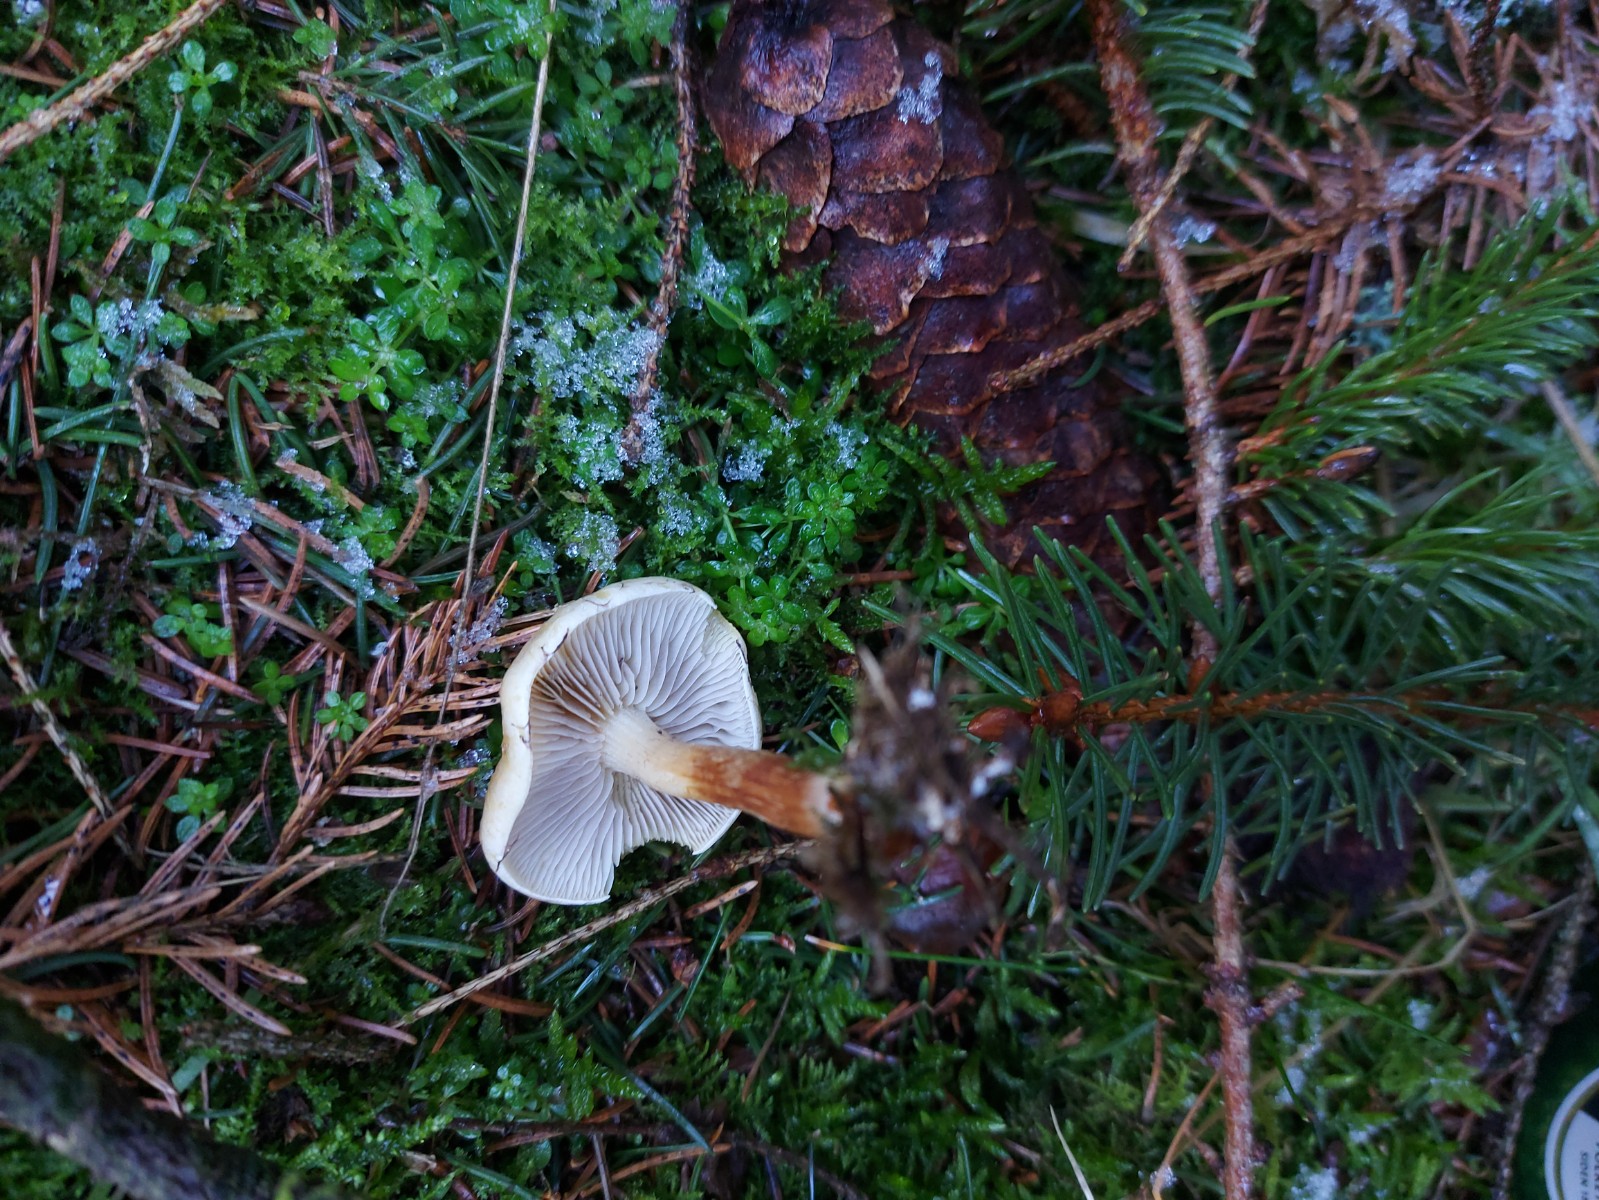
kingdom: Fungi
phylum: Basidiomycota
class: Agaricomycetes
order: Agaricales
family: Strophariaceae
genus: Hypholoma
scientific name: Hypholoma capnoides
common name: gran-svovlhat
